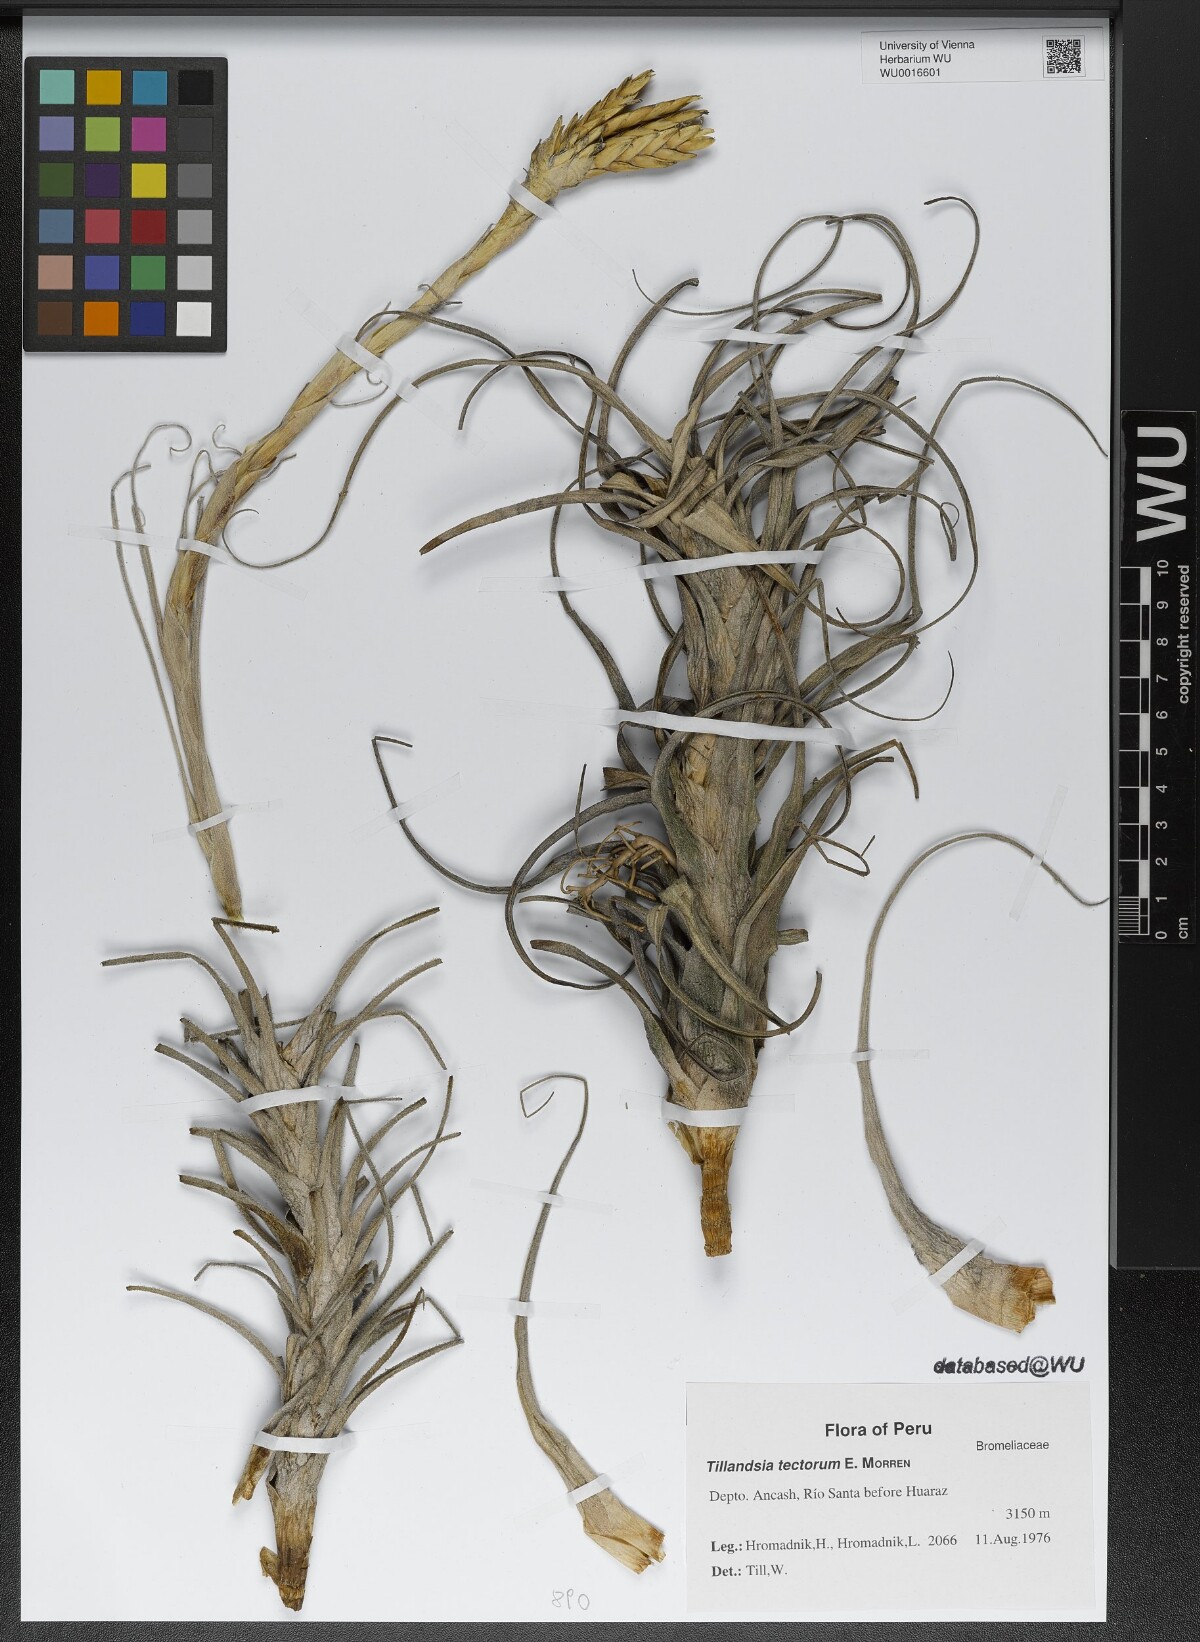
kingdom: Plantae
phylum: Tracheophyta
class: Liliopsida
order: Poales
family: Bromeliaceae
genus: Tillandsia
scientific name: Tillandsia tectorum
